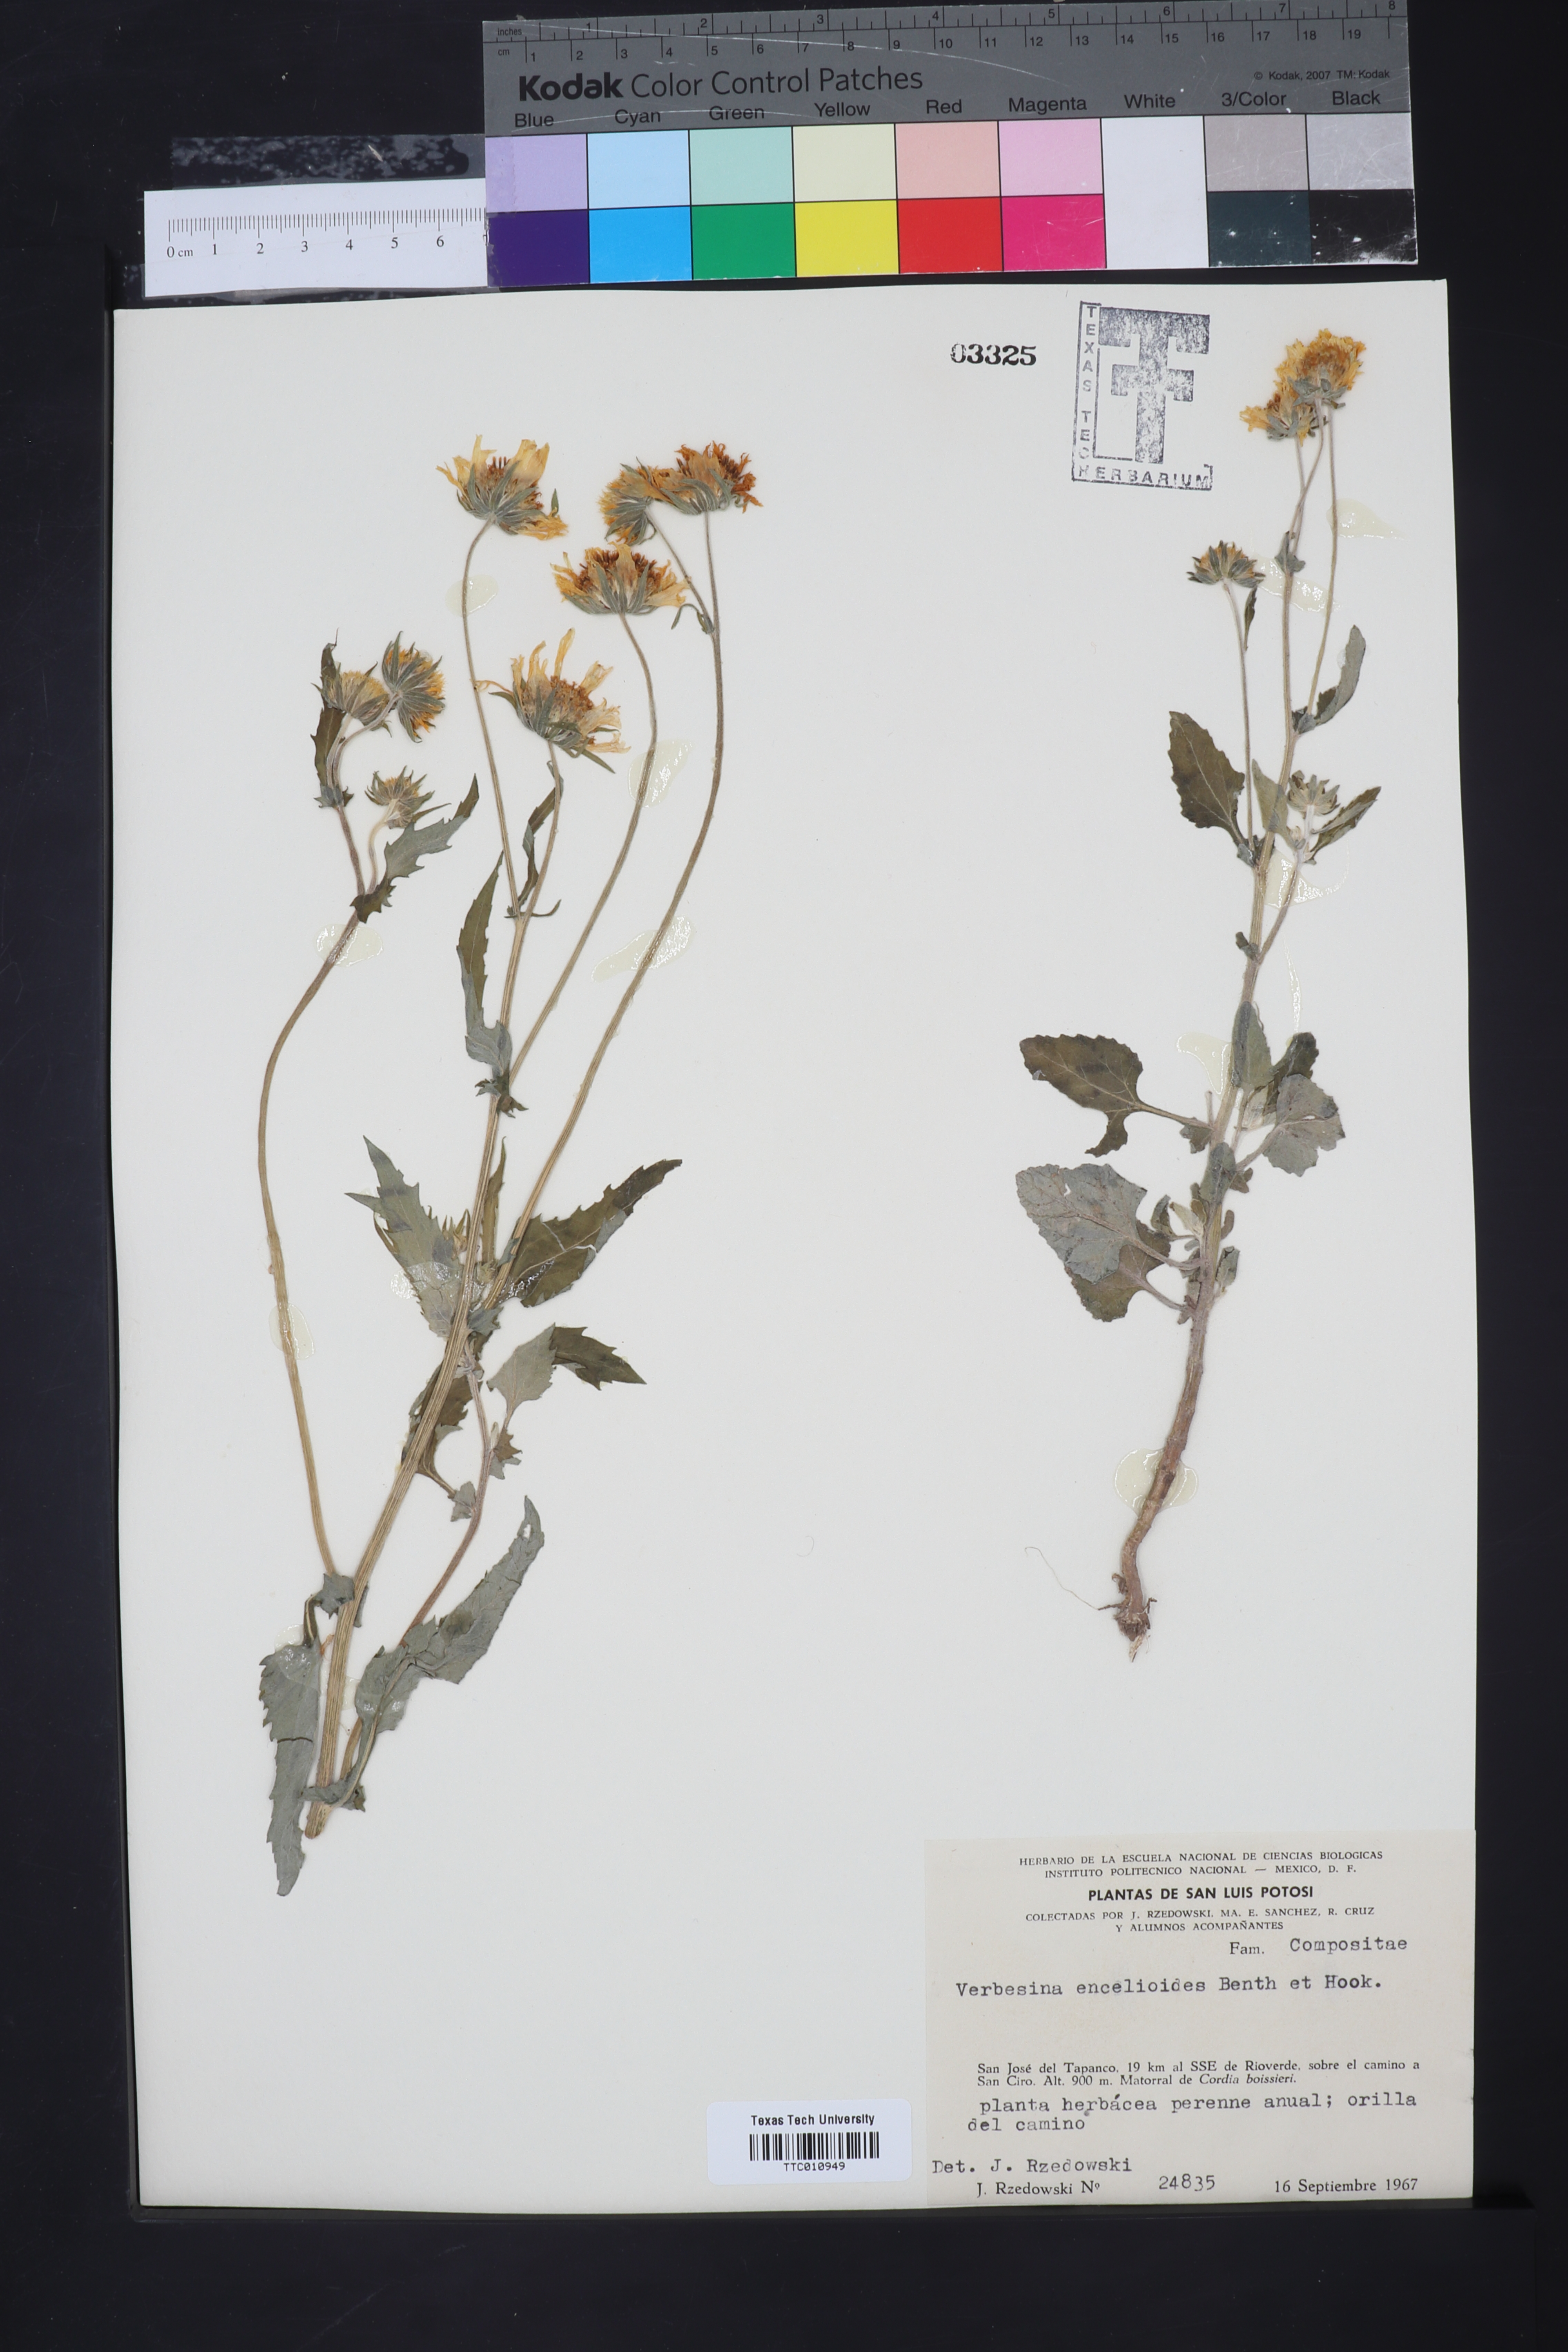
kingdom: Plantae
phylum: Tracheophyta
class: Magnoliopsida
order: Asterales
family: Asteraceae
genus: Verbesina
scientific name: Verbesina encelioides
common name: Golden crownbeard
